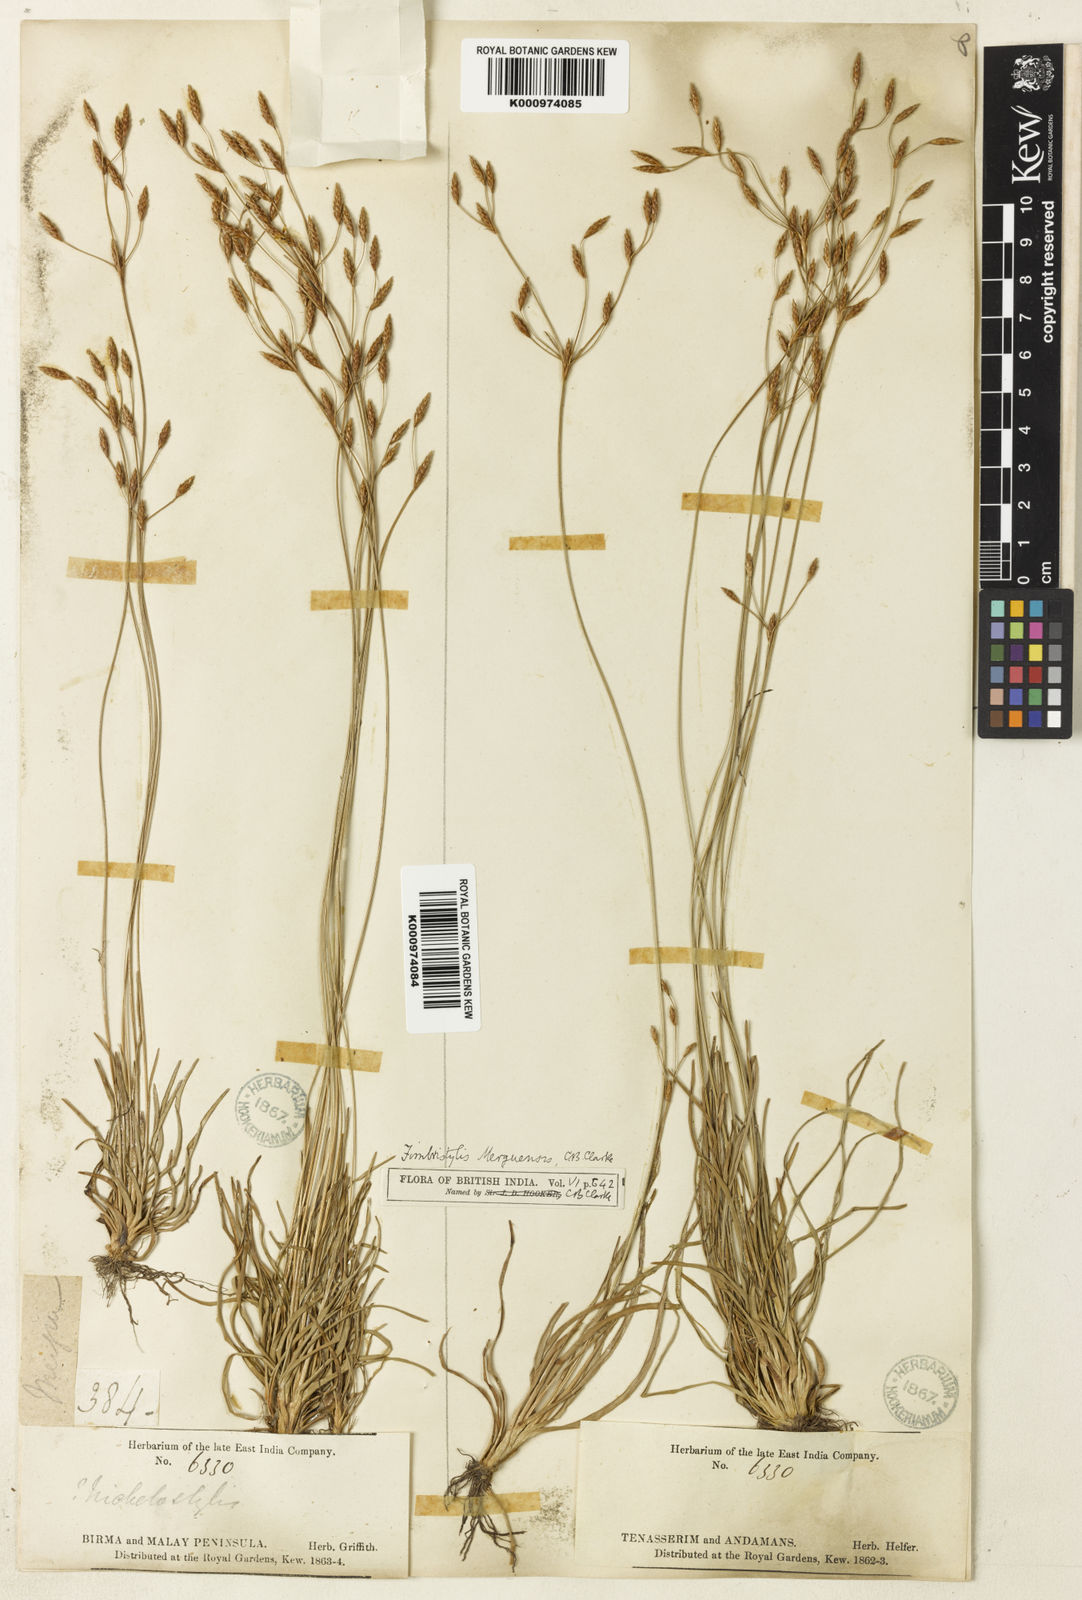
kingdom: Plantae
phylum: Tracheophyta
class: Liliopsida
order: Poales
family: Cyperaceae
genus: Fimbristylis
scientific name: Fimbristylis merguensis
